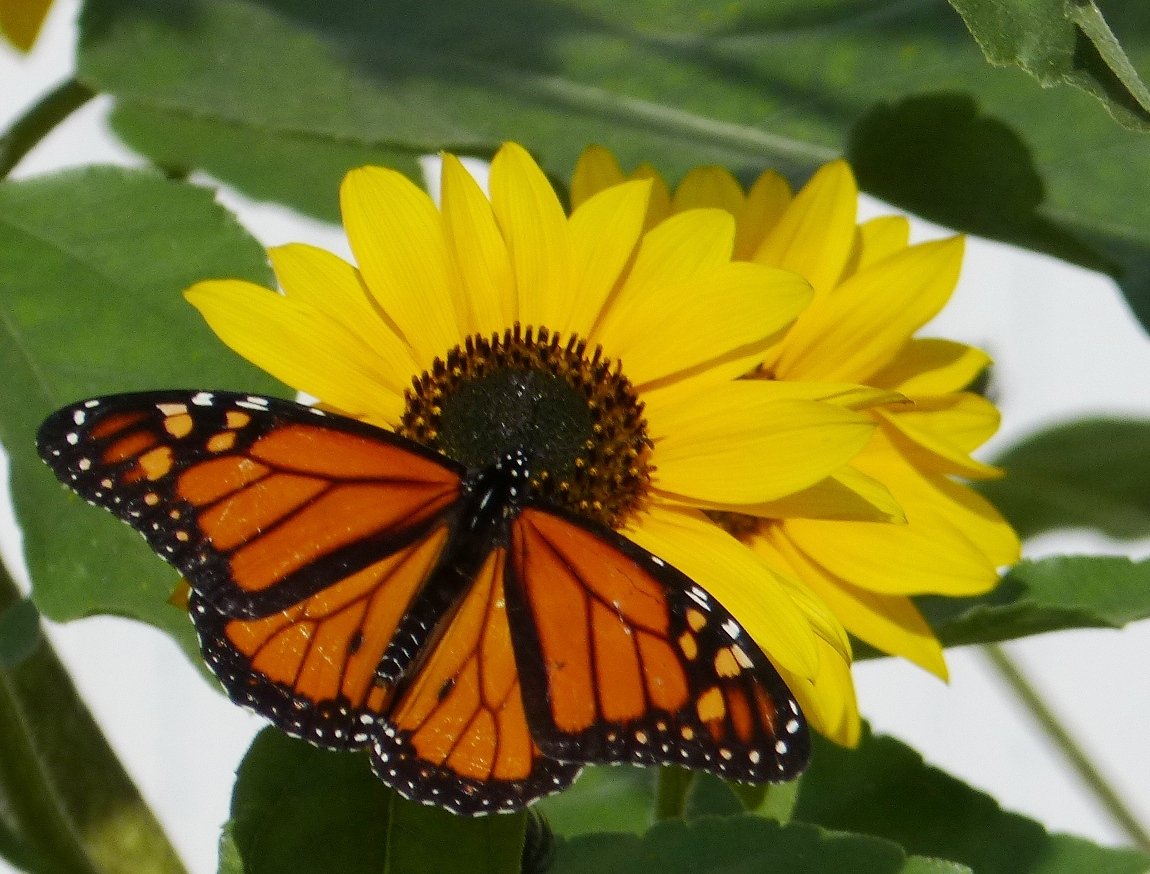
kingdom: Animalia
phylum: Arthropoda
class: Insecta
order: Lepidoptera
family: Nymphalidae
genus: Danaus
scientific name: Danaus plexippus
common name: Monarch
